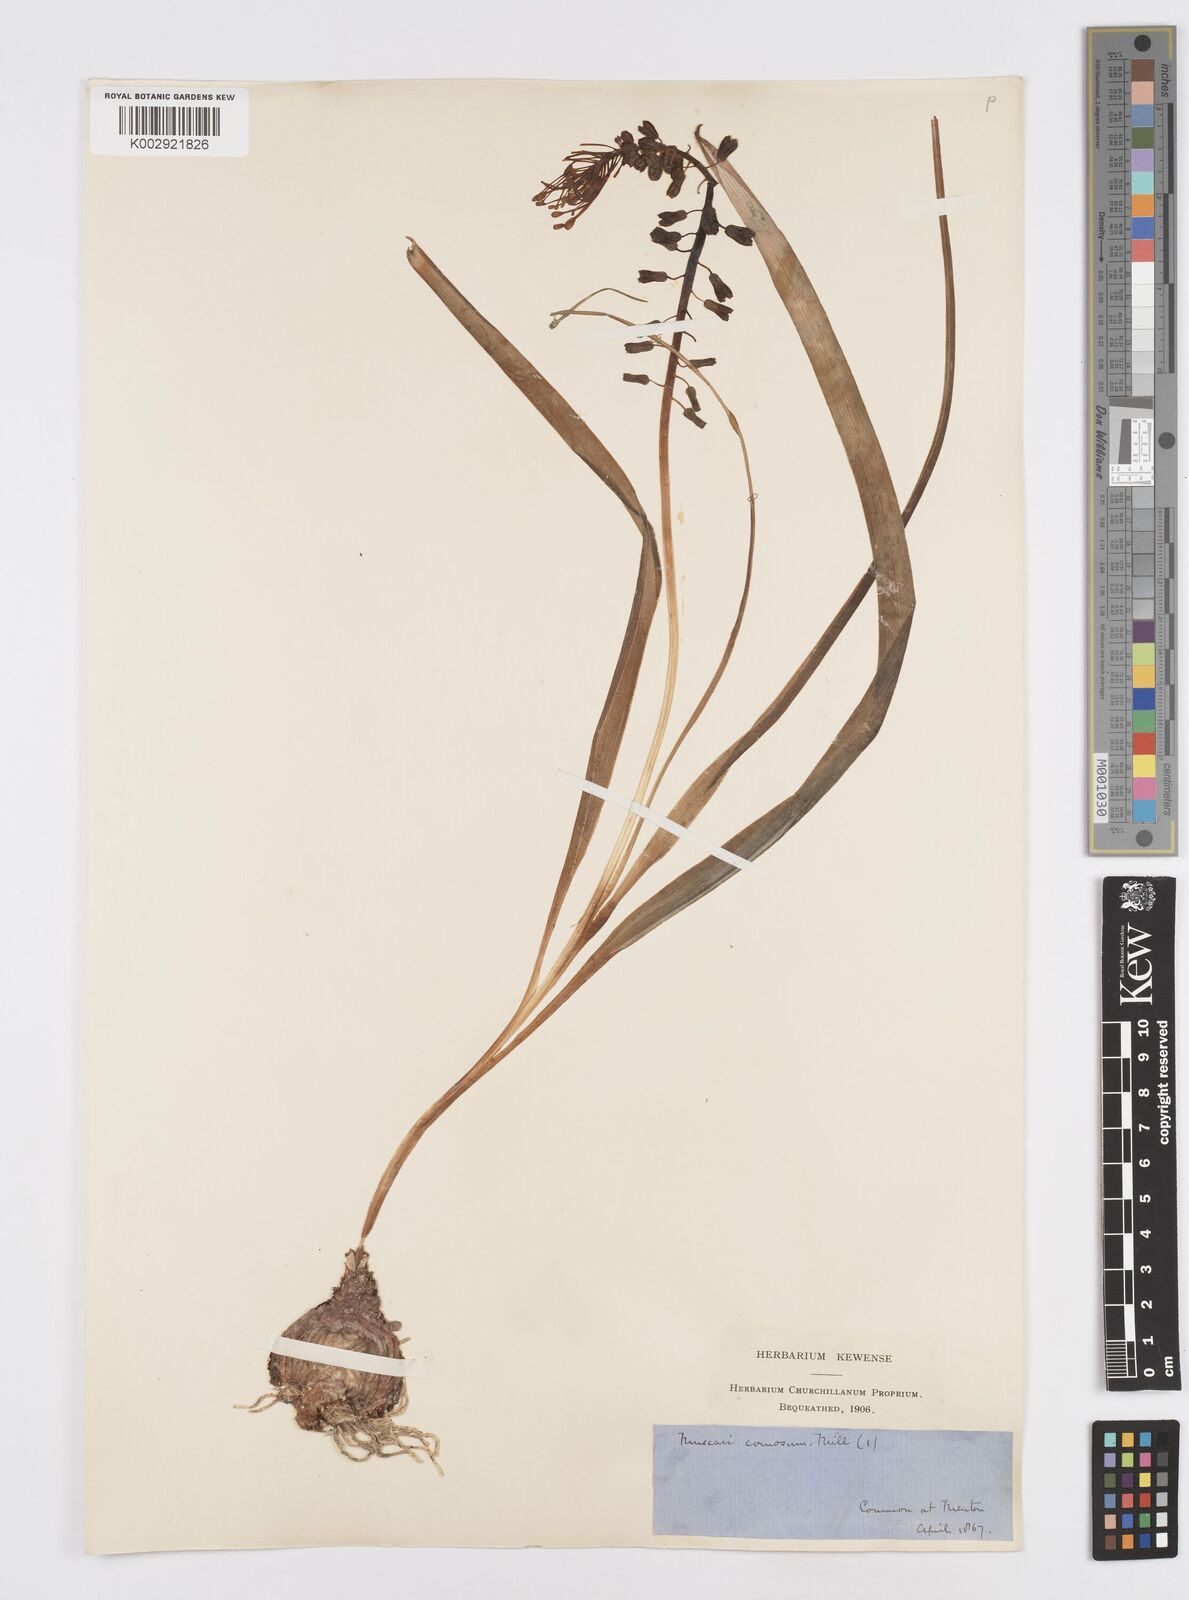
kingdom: Plantae
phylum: Tracheophyta
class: Liliopsida
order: Asparagales
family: Asparagaceae
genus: Muscari
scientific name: Muscari comosum
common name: Tassel hyacinth
